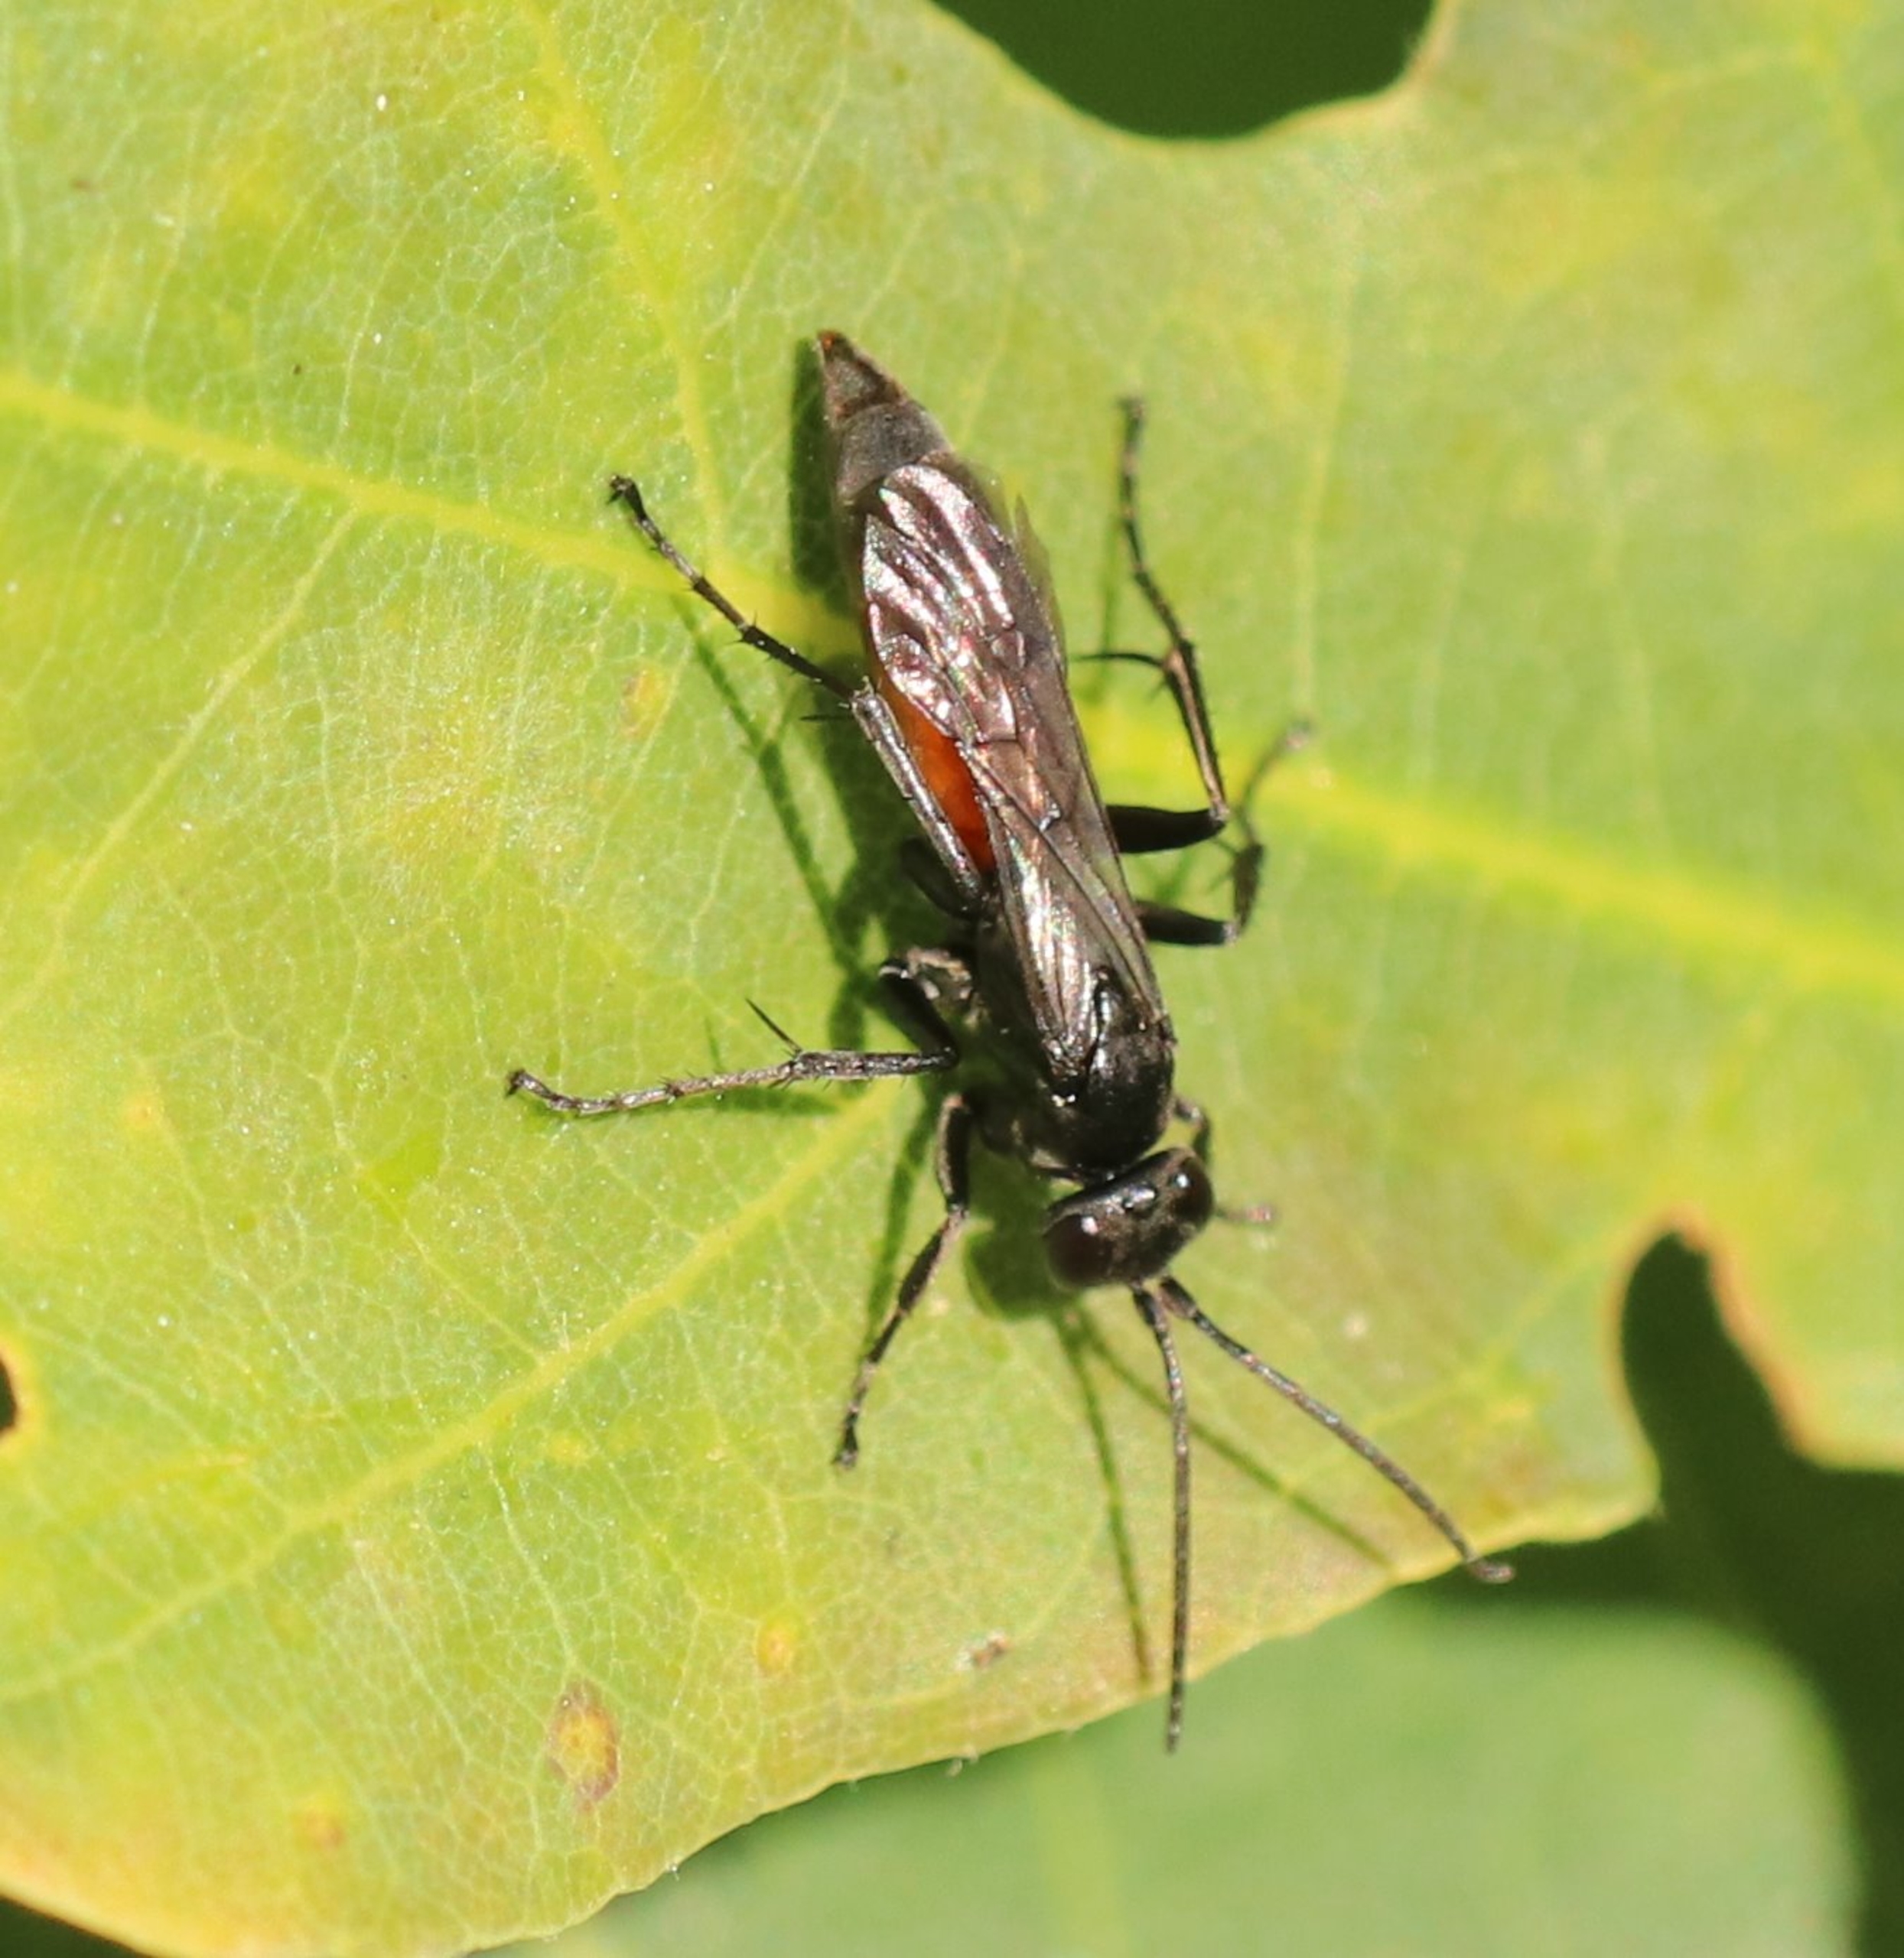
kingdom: Animalia
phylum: Arthropoda
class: Insecta
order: Hymenoptera
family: Pompilidae
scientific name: Pompilidae
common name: Vejhvepse
